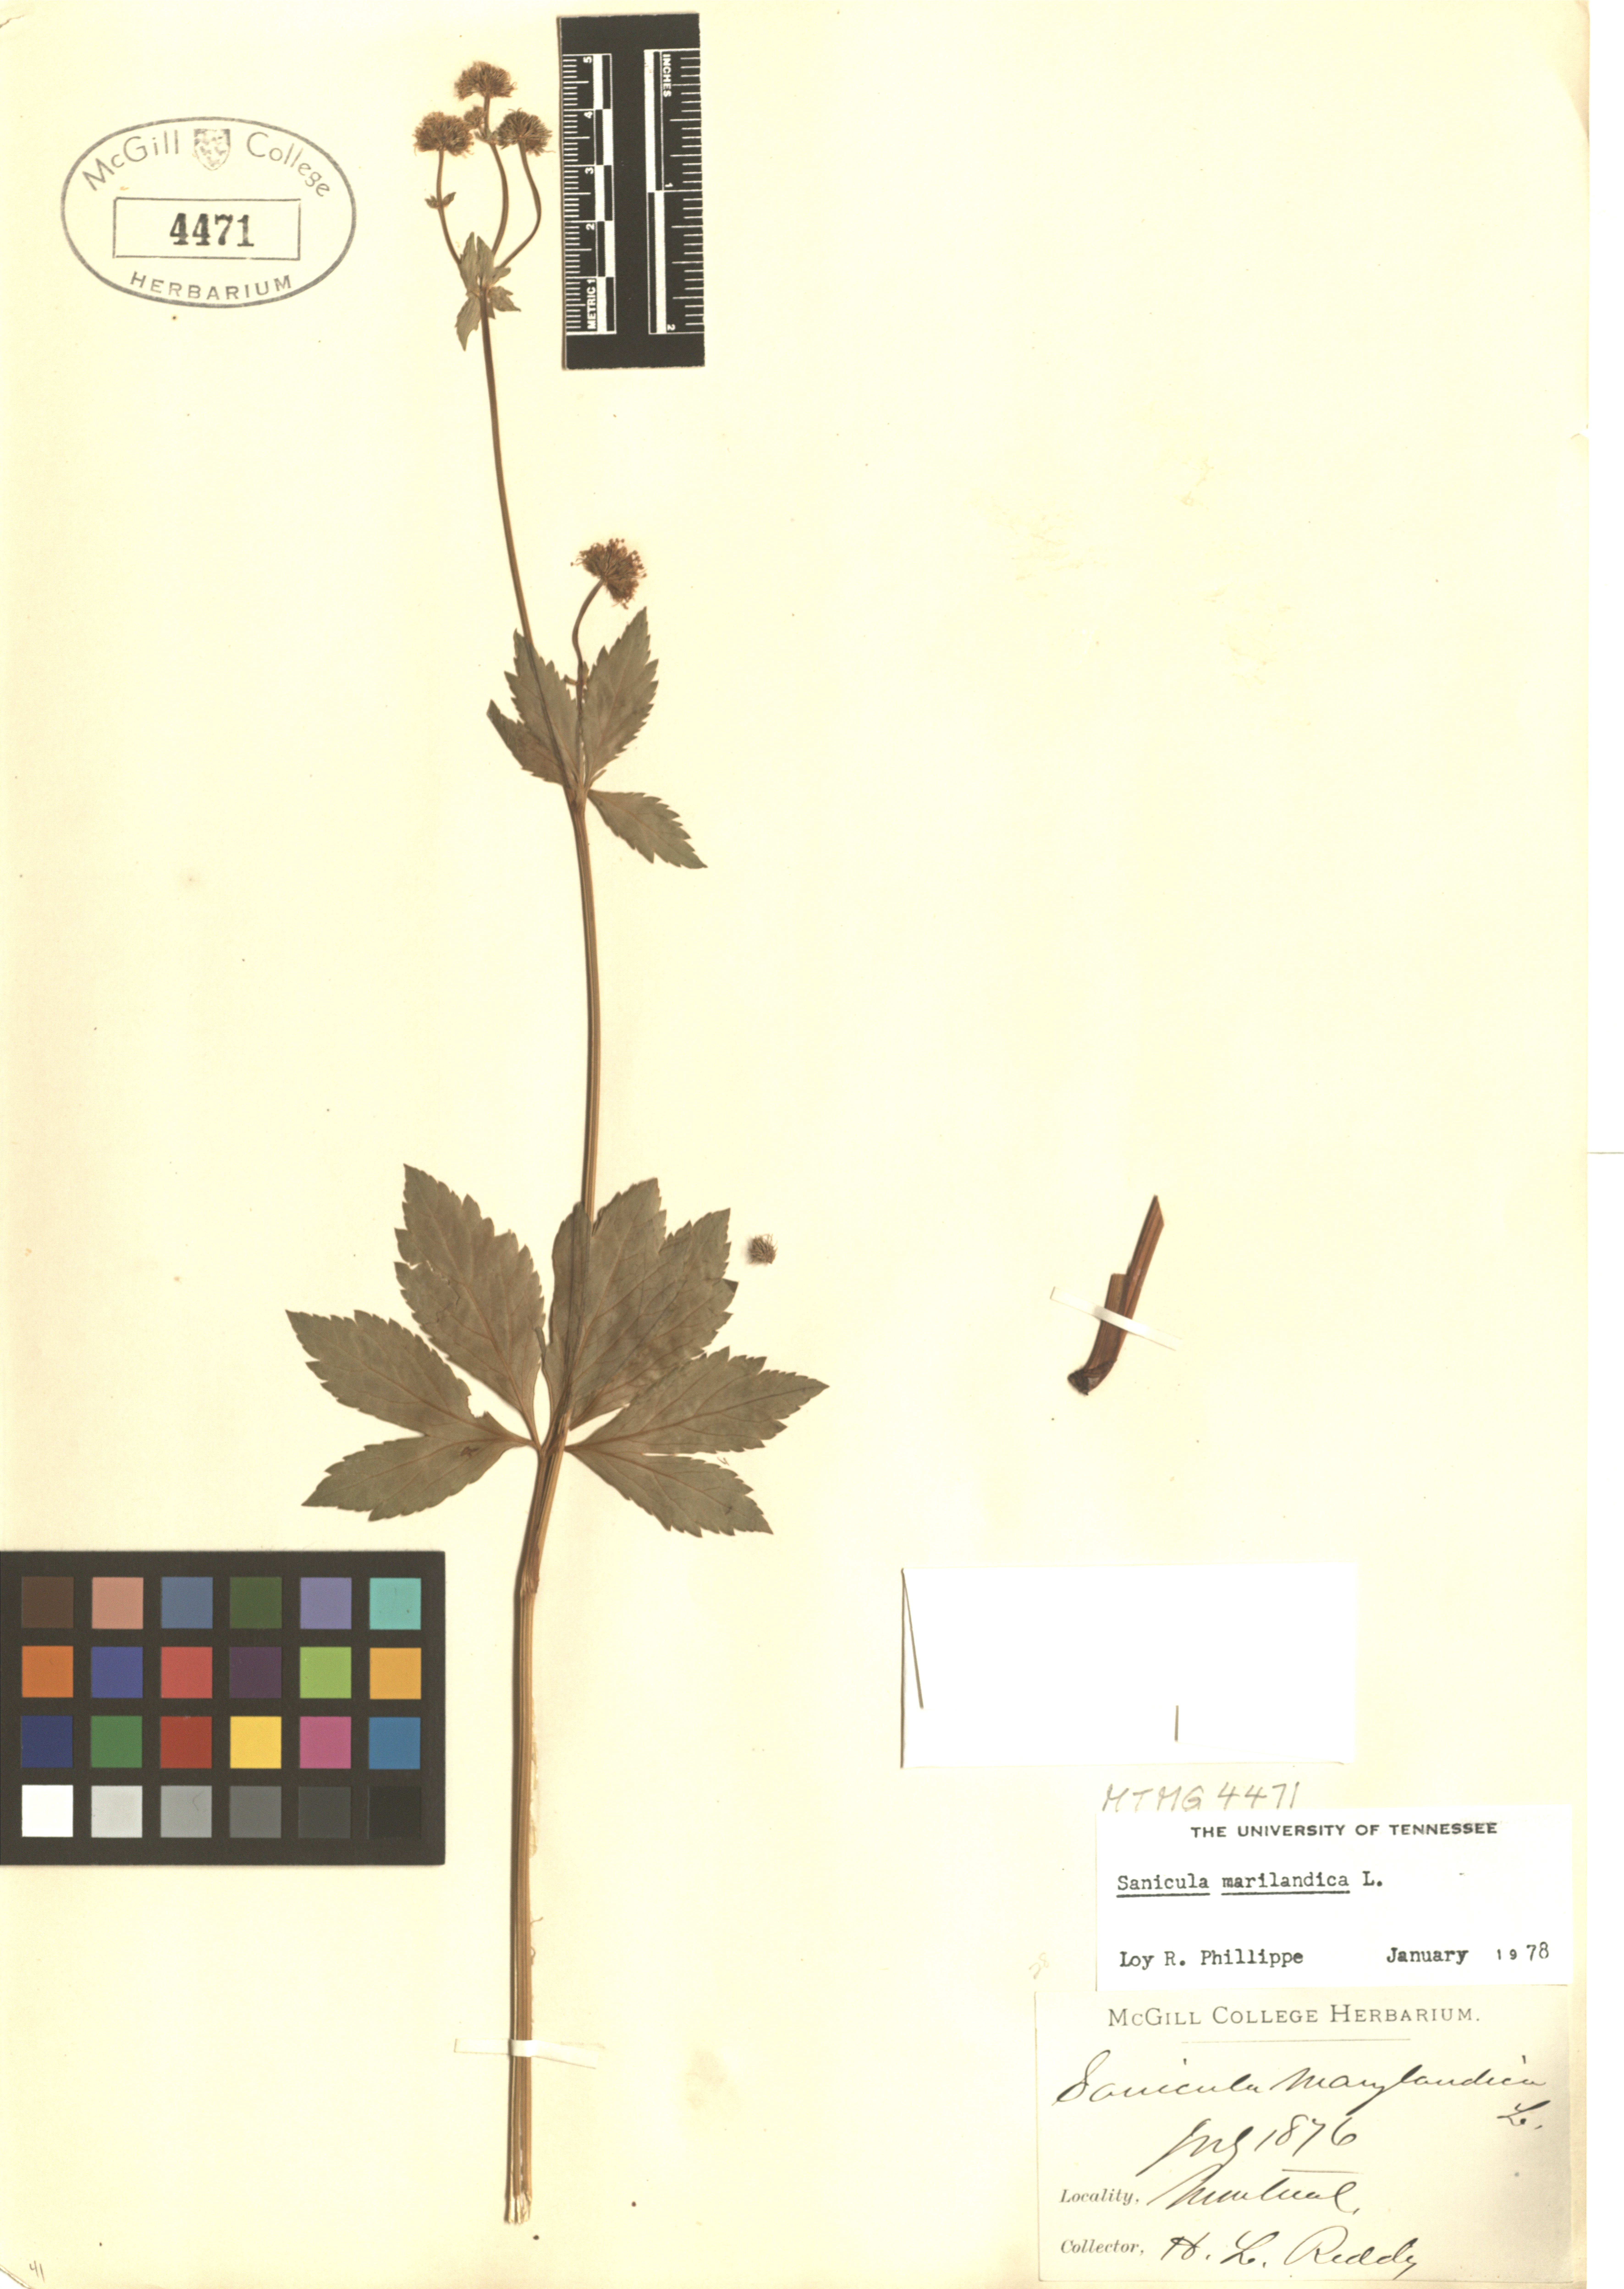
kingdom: Plantae
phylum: Tracheophyta
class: Magnoliopsida
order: Apiales
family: Apiaceae
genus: Sanicula
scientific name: Sanicula marilandica
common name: Black snakeroot
